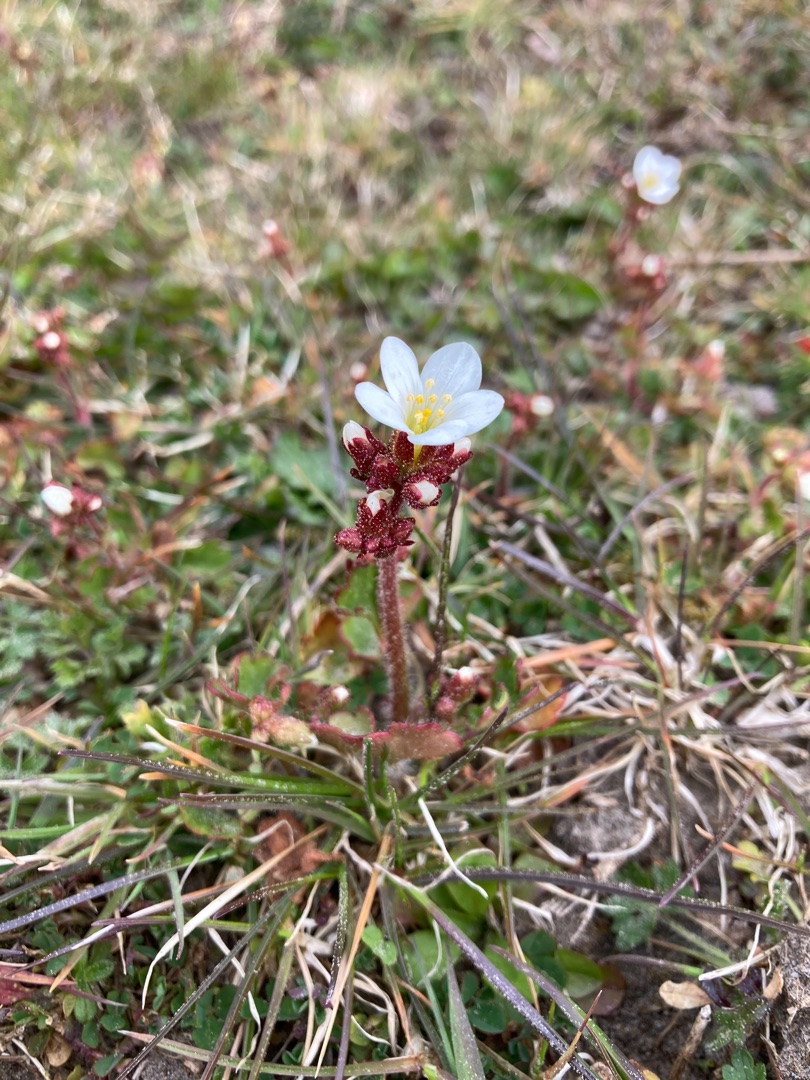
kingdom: Plantae
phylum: Tracheophyta
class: Magnoliopsida
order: Saxifragales
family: Saxifragaceae
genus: Saxifraga
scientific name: Saxifraga granulata
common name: Kornet stenbræk
